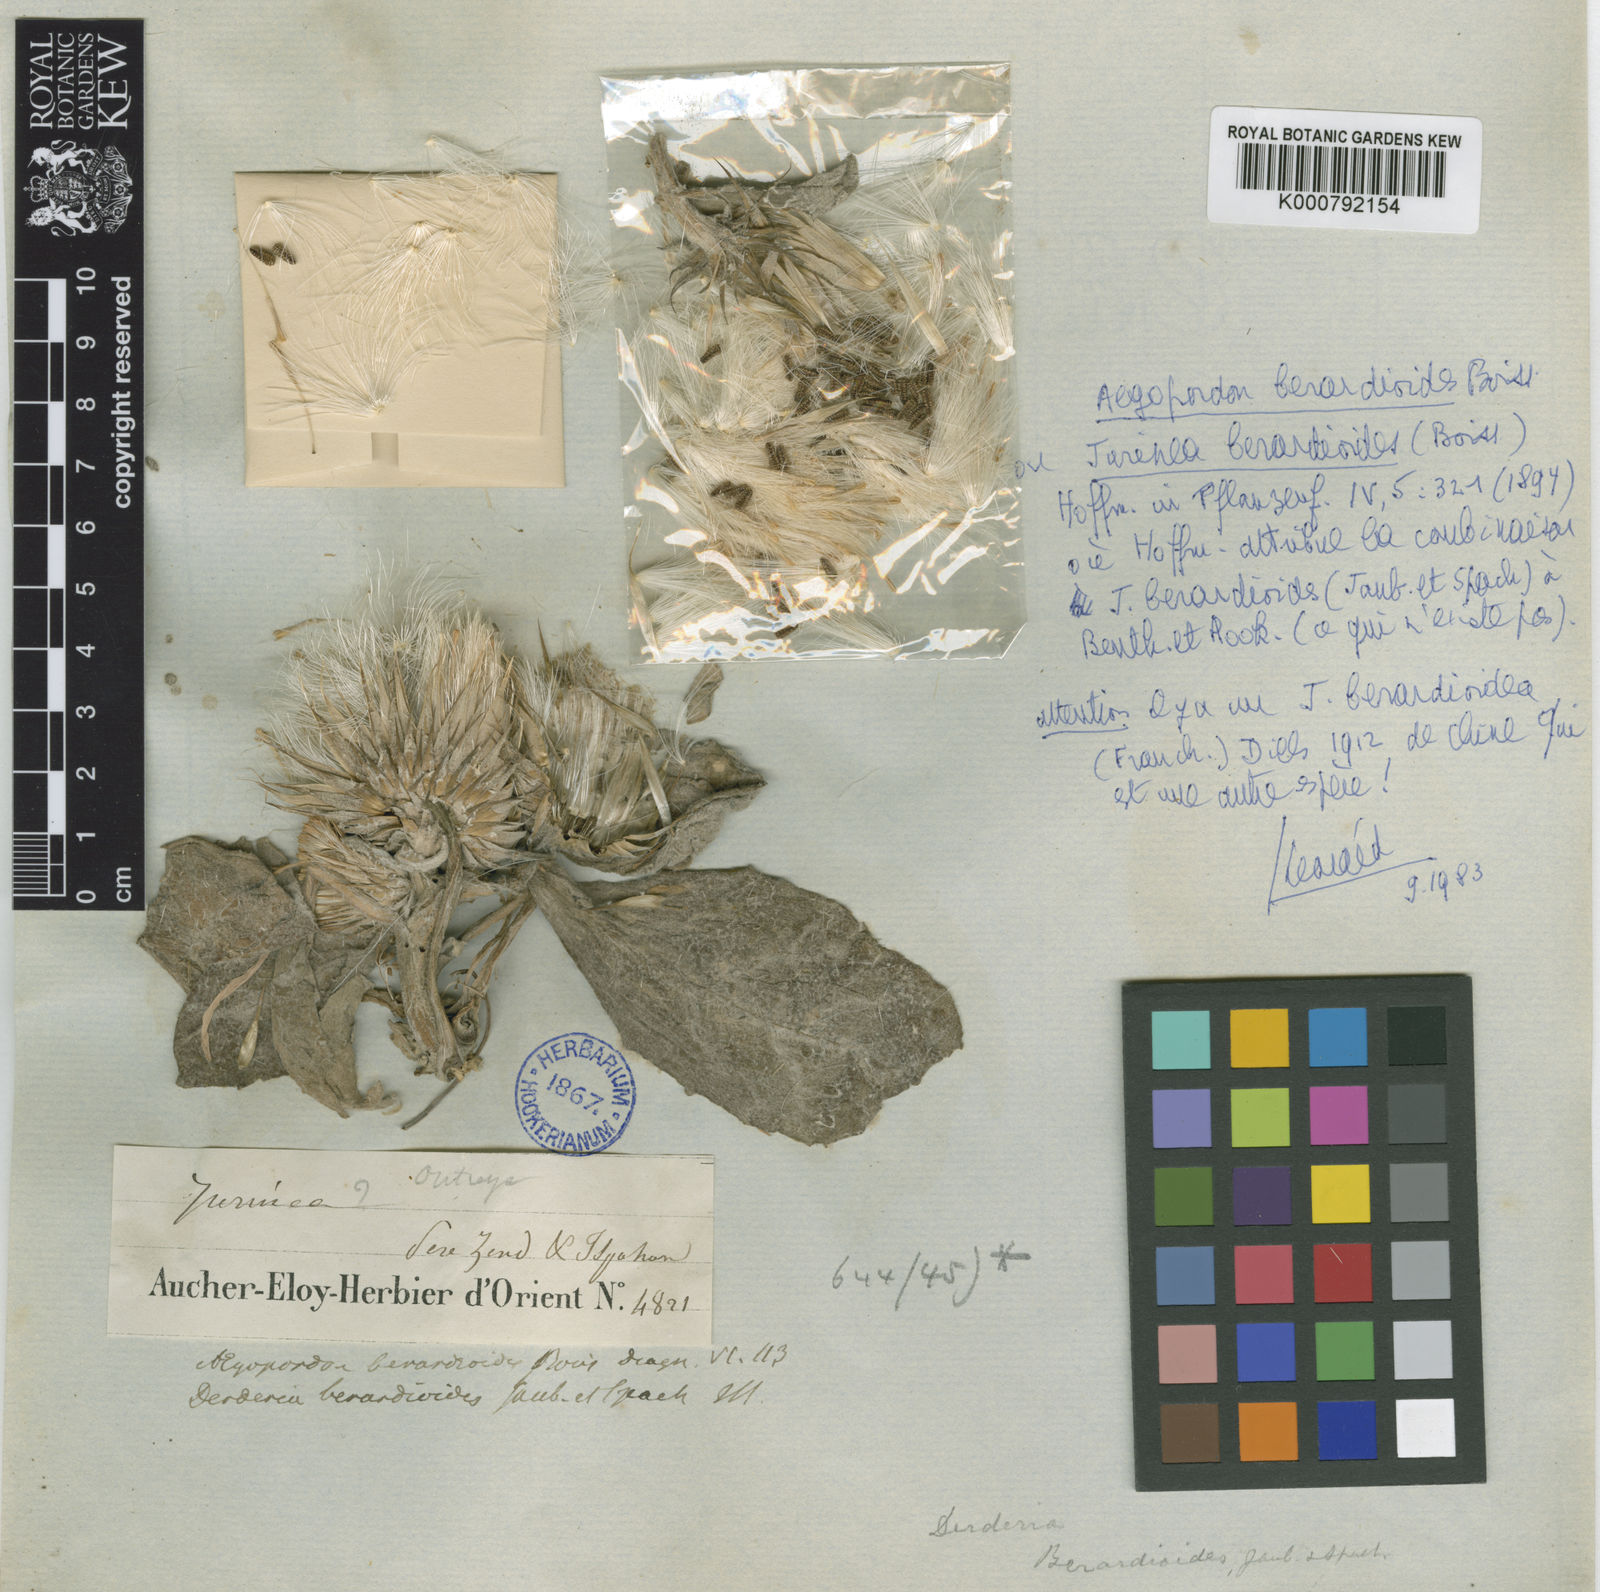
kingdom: Plantae
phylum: Tracheophyta
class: Magnoliopsida
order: Asterales
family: Asteraceae
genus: Jurinea
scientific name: Jurinea berardioides
